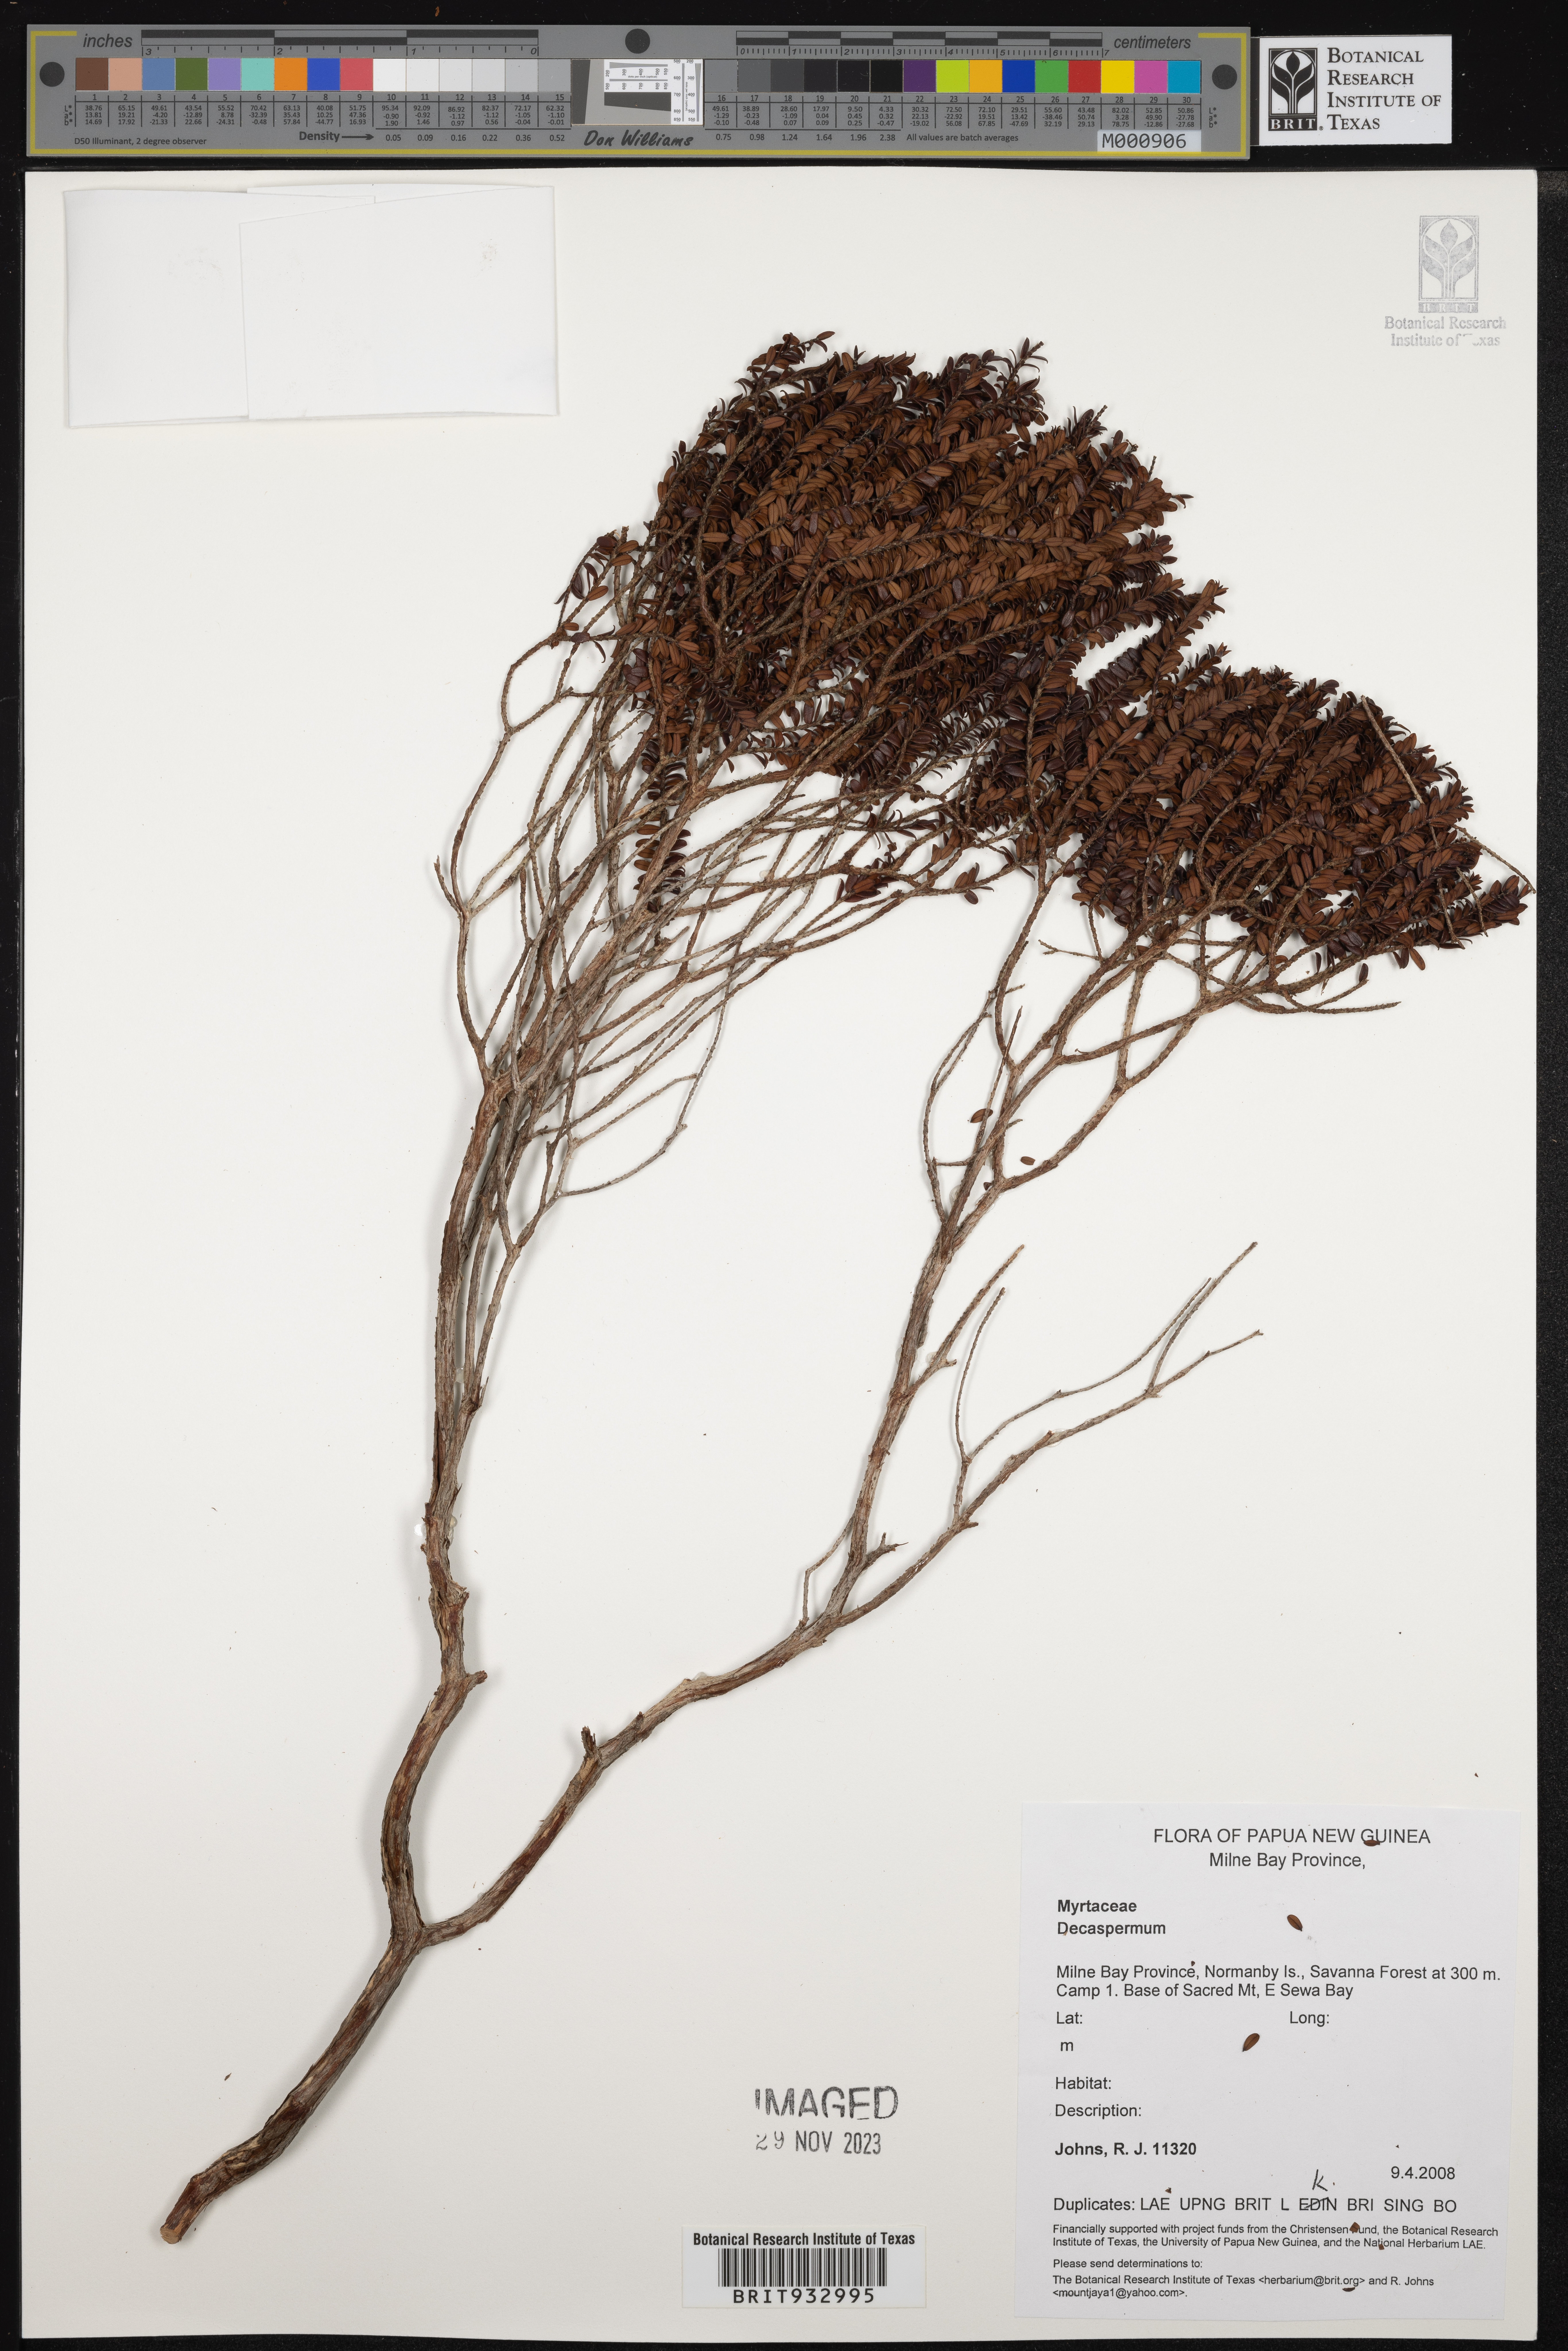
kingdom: Plantae
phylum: Tracheophyta
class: Magnoliopsida
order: Myrtales
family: Myrtaceae
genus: Decaspermum
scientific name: Decaspermum
